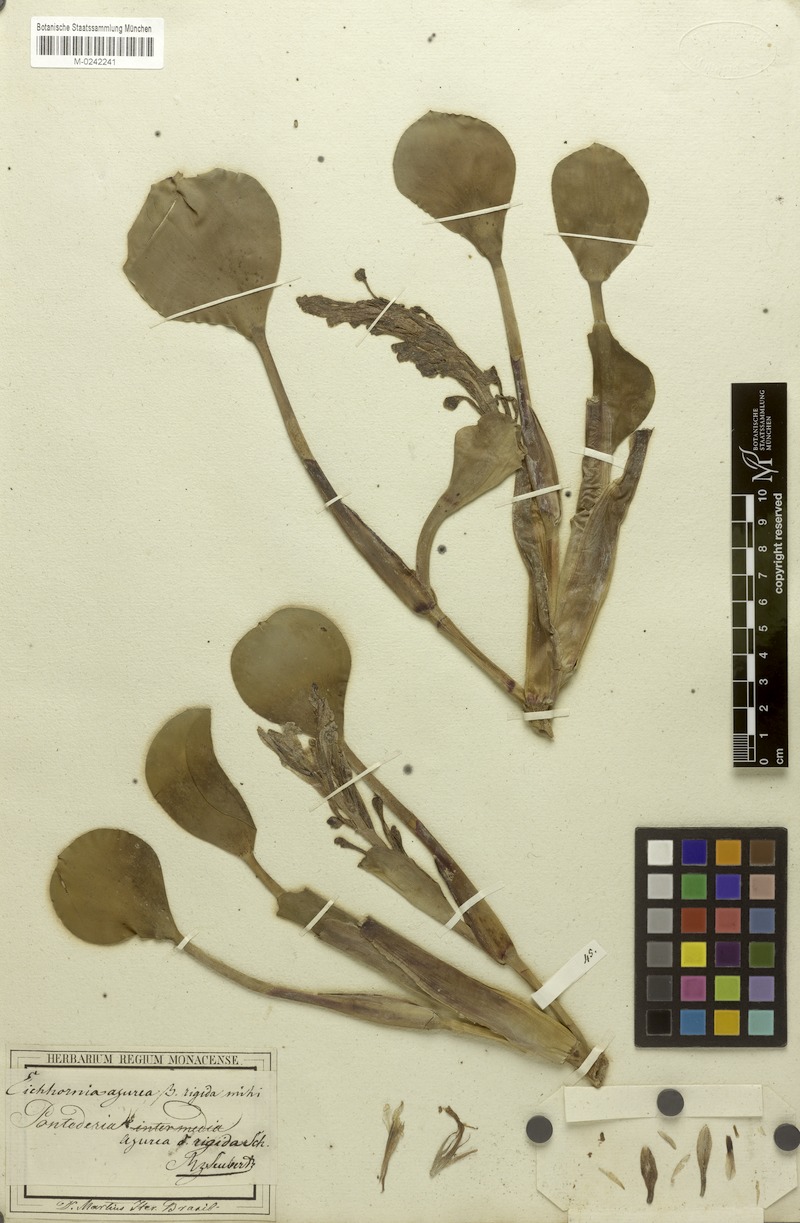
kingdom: Plantae
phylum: Tracheophyta
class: Liliopsida
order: Commelinales
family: Pontederiaceae
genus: Pontederia
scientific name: Pontederia azurea
